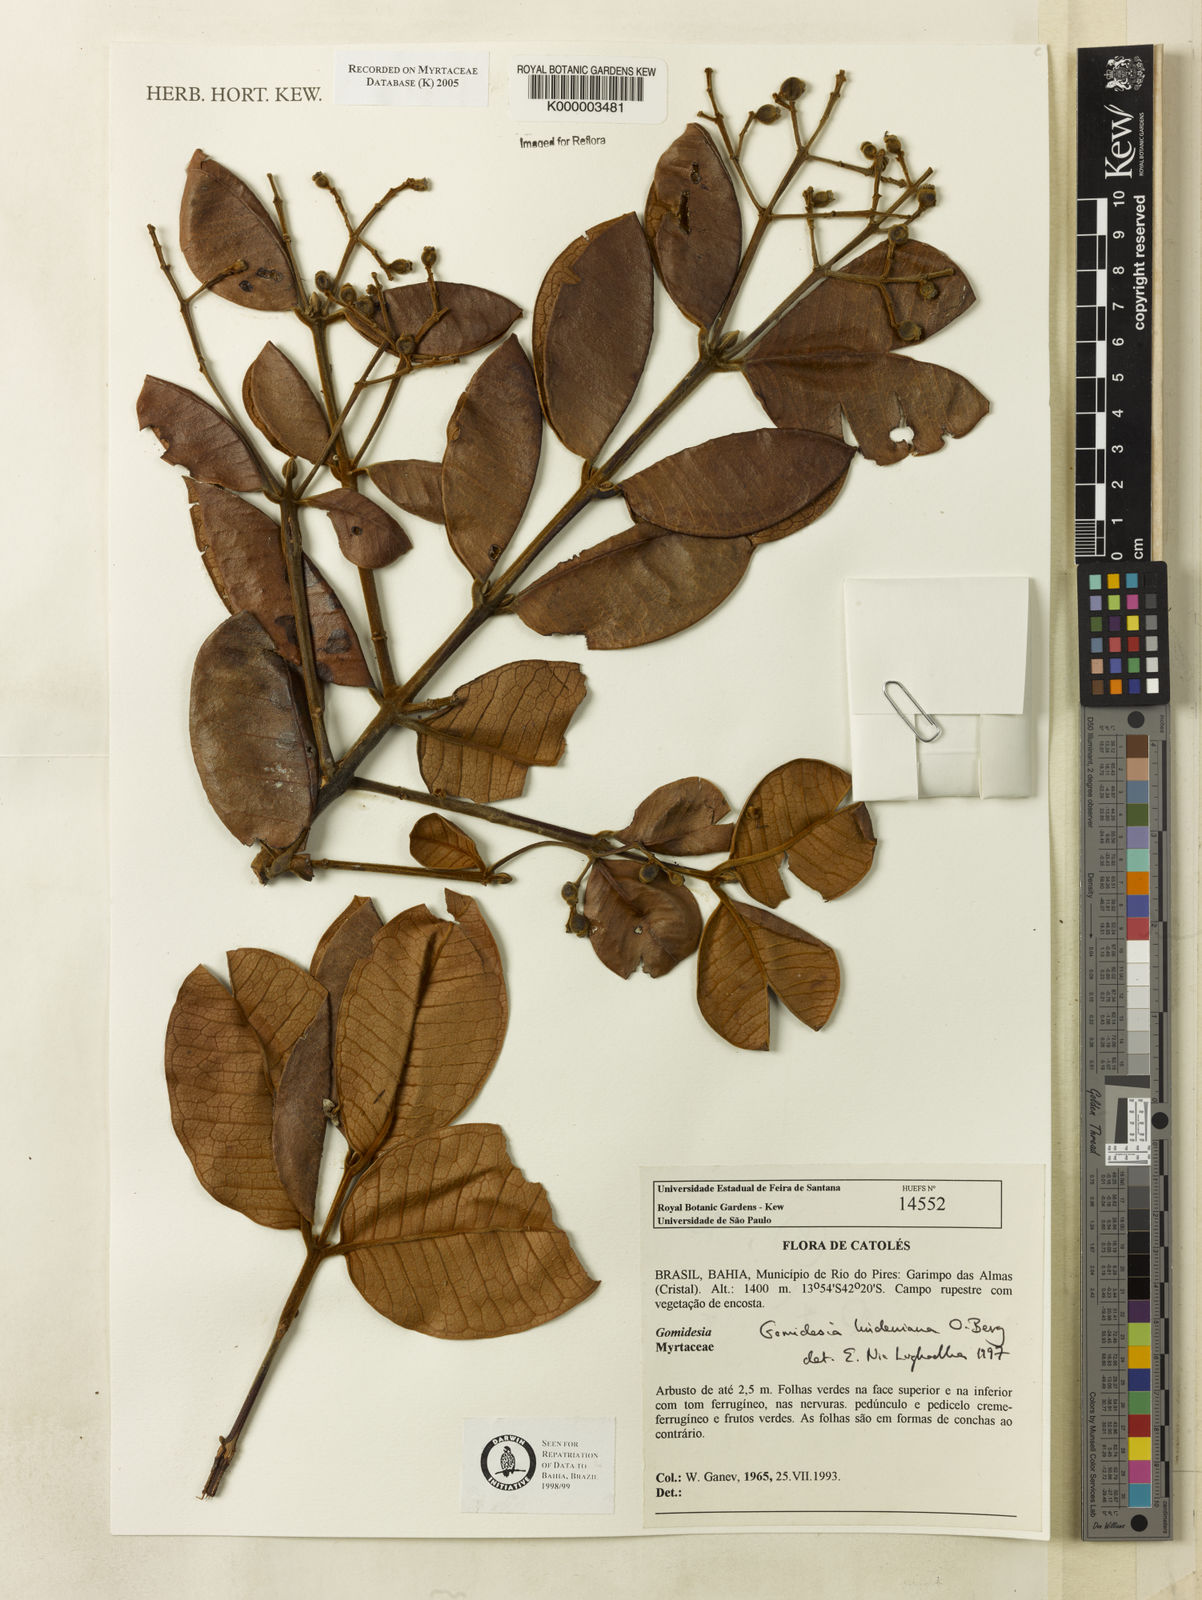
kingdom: Plantae
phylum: Tracheophyta
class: Magnoliopsida
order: Myrtales
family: Myrtaceae
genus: Myrcia
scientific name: Myrcia fenzliana
